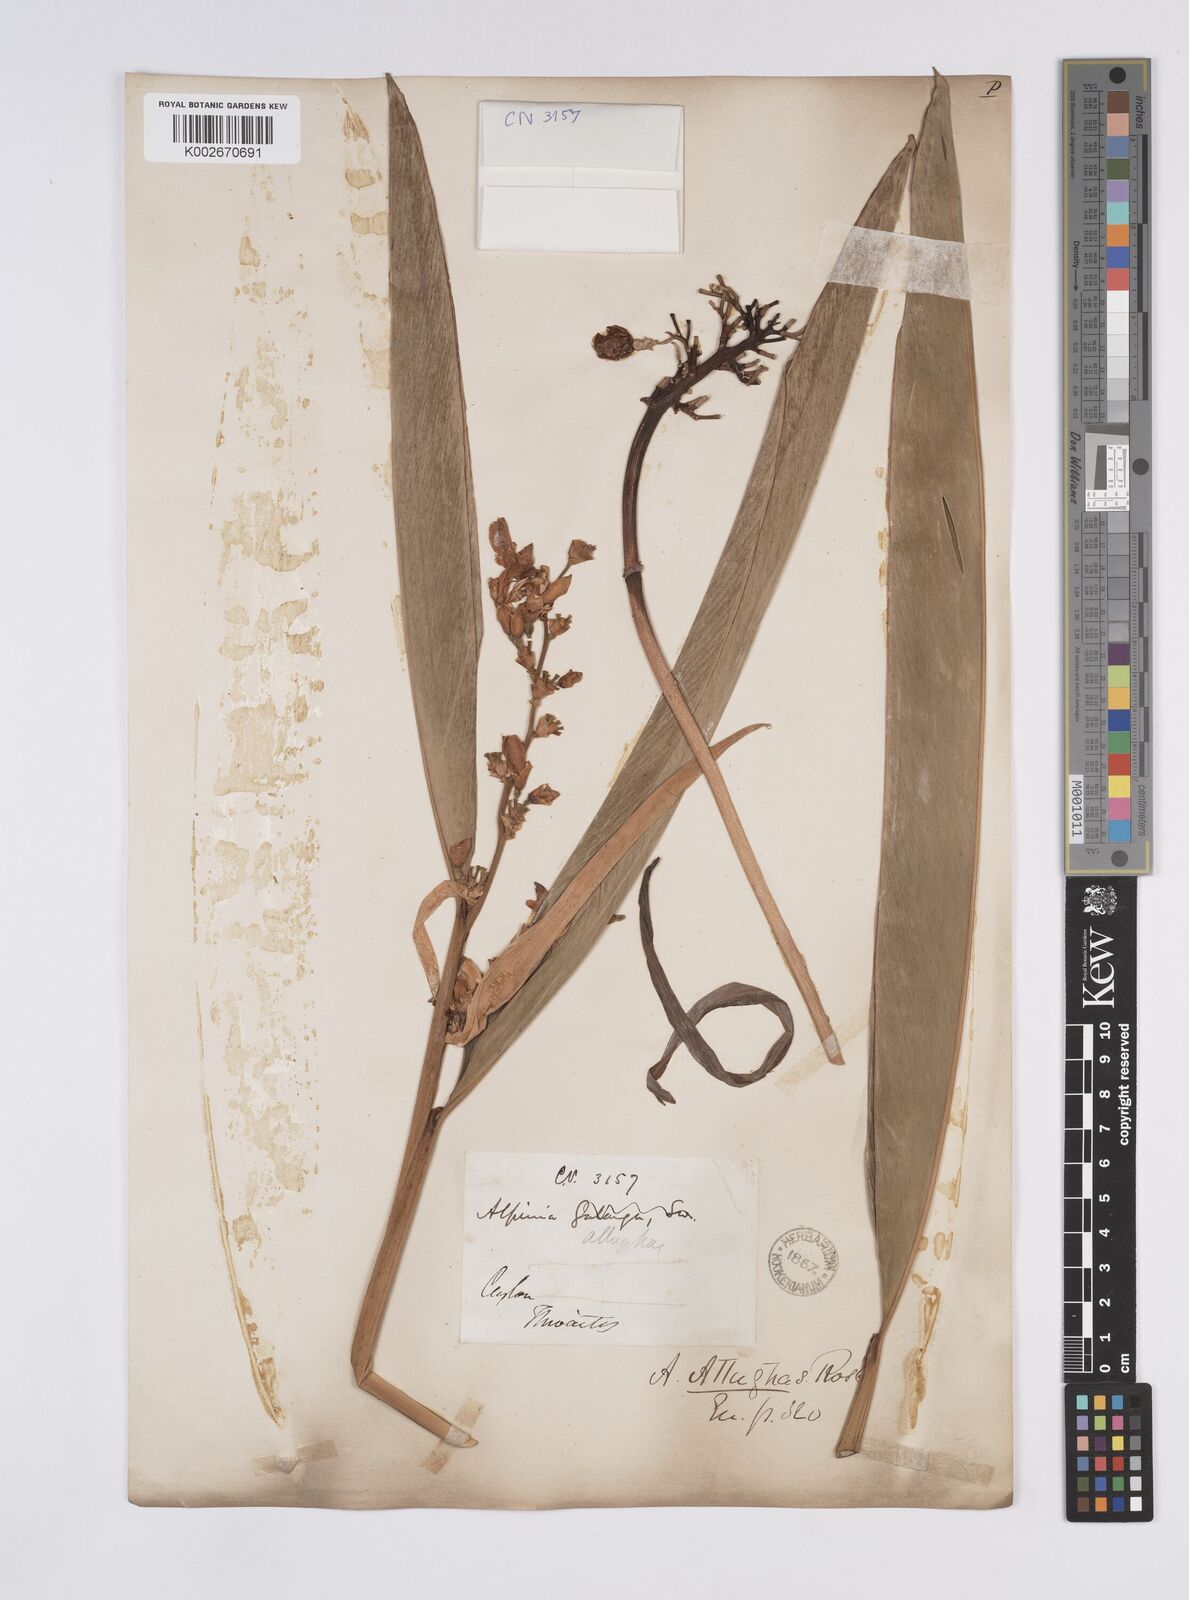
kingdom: Plantae
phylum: Tracheophyta
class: Liliopsida
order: Zingiberales
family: Zingiberaceae
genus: Alpinia
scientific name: Alpinia nigra
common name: Black fruited galanga
